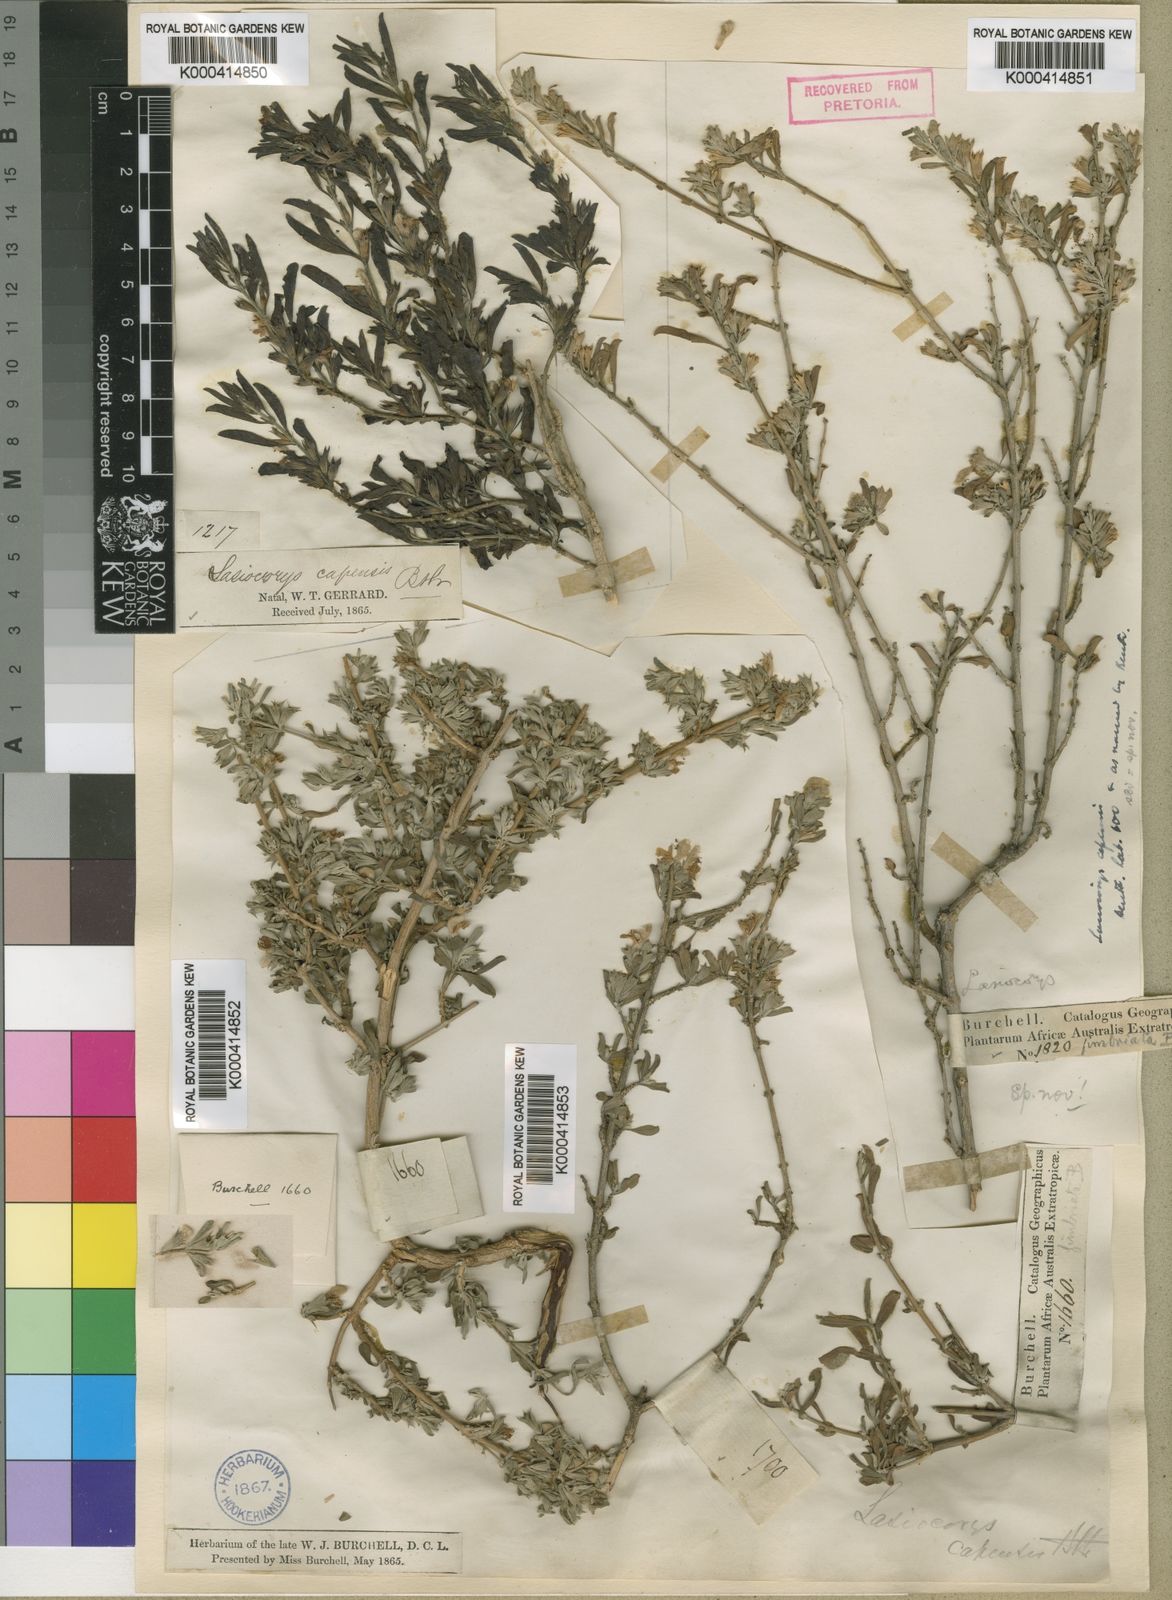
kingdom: Plantae
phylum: Tracheophyta
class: Magnoliopsida
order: Lamiales
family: Lamiaceae
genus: Leucas
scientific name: Leucas capensis
